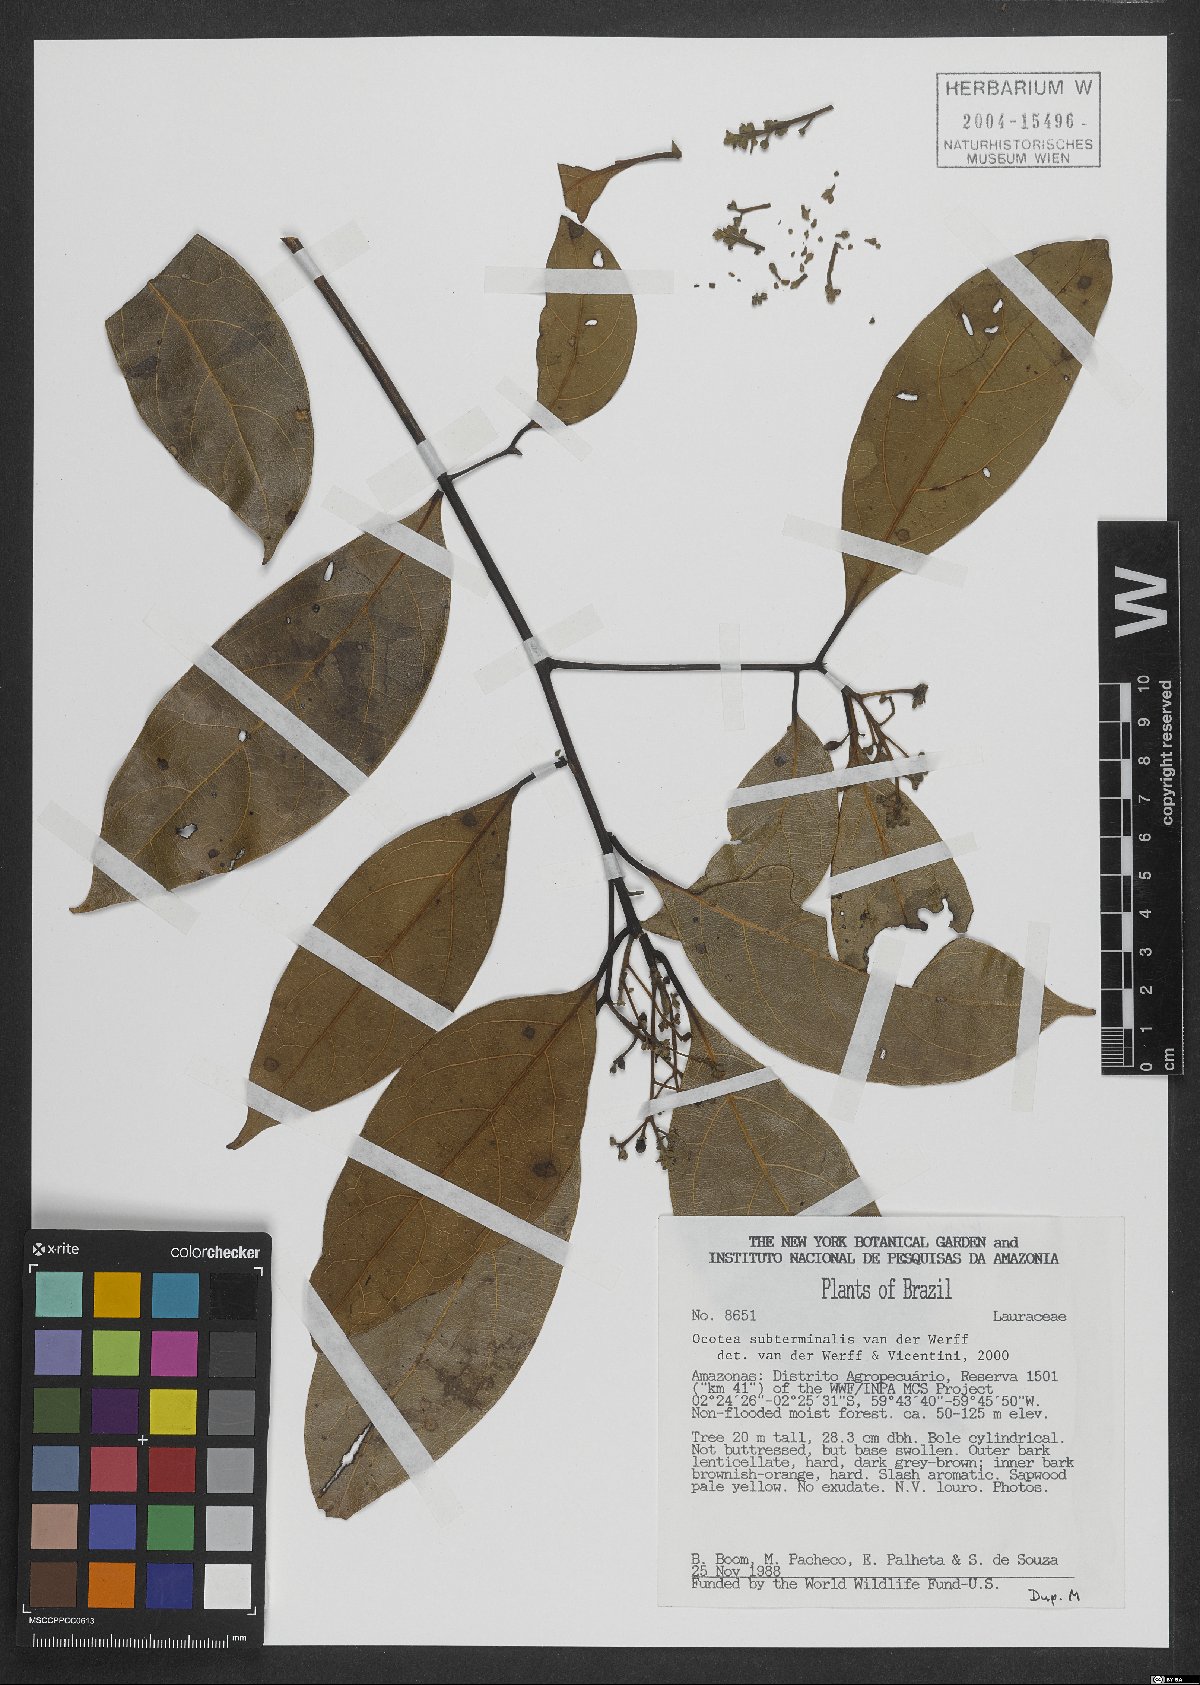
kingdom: Plantae
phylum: Tracheophyta
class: Magnoliopsida
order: Laurales
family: Lauraceae
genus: Ocotea
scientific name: Ocotea subterminalis
